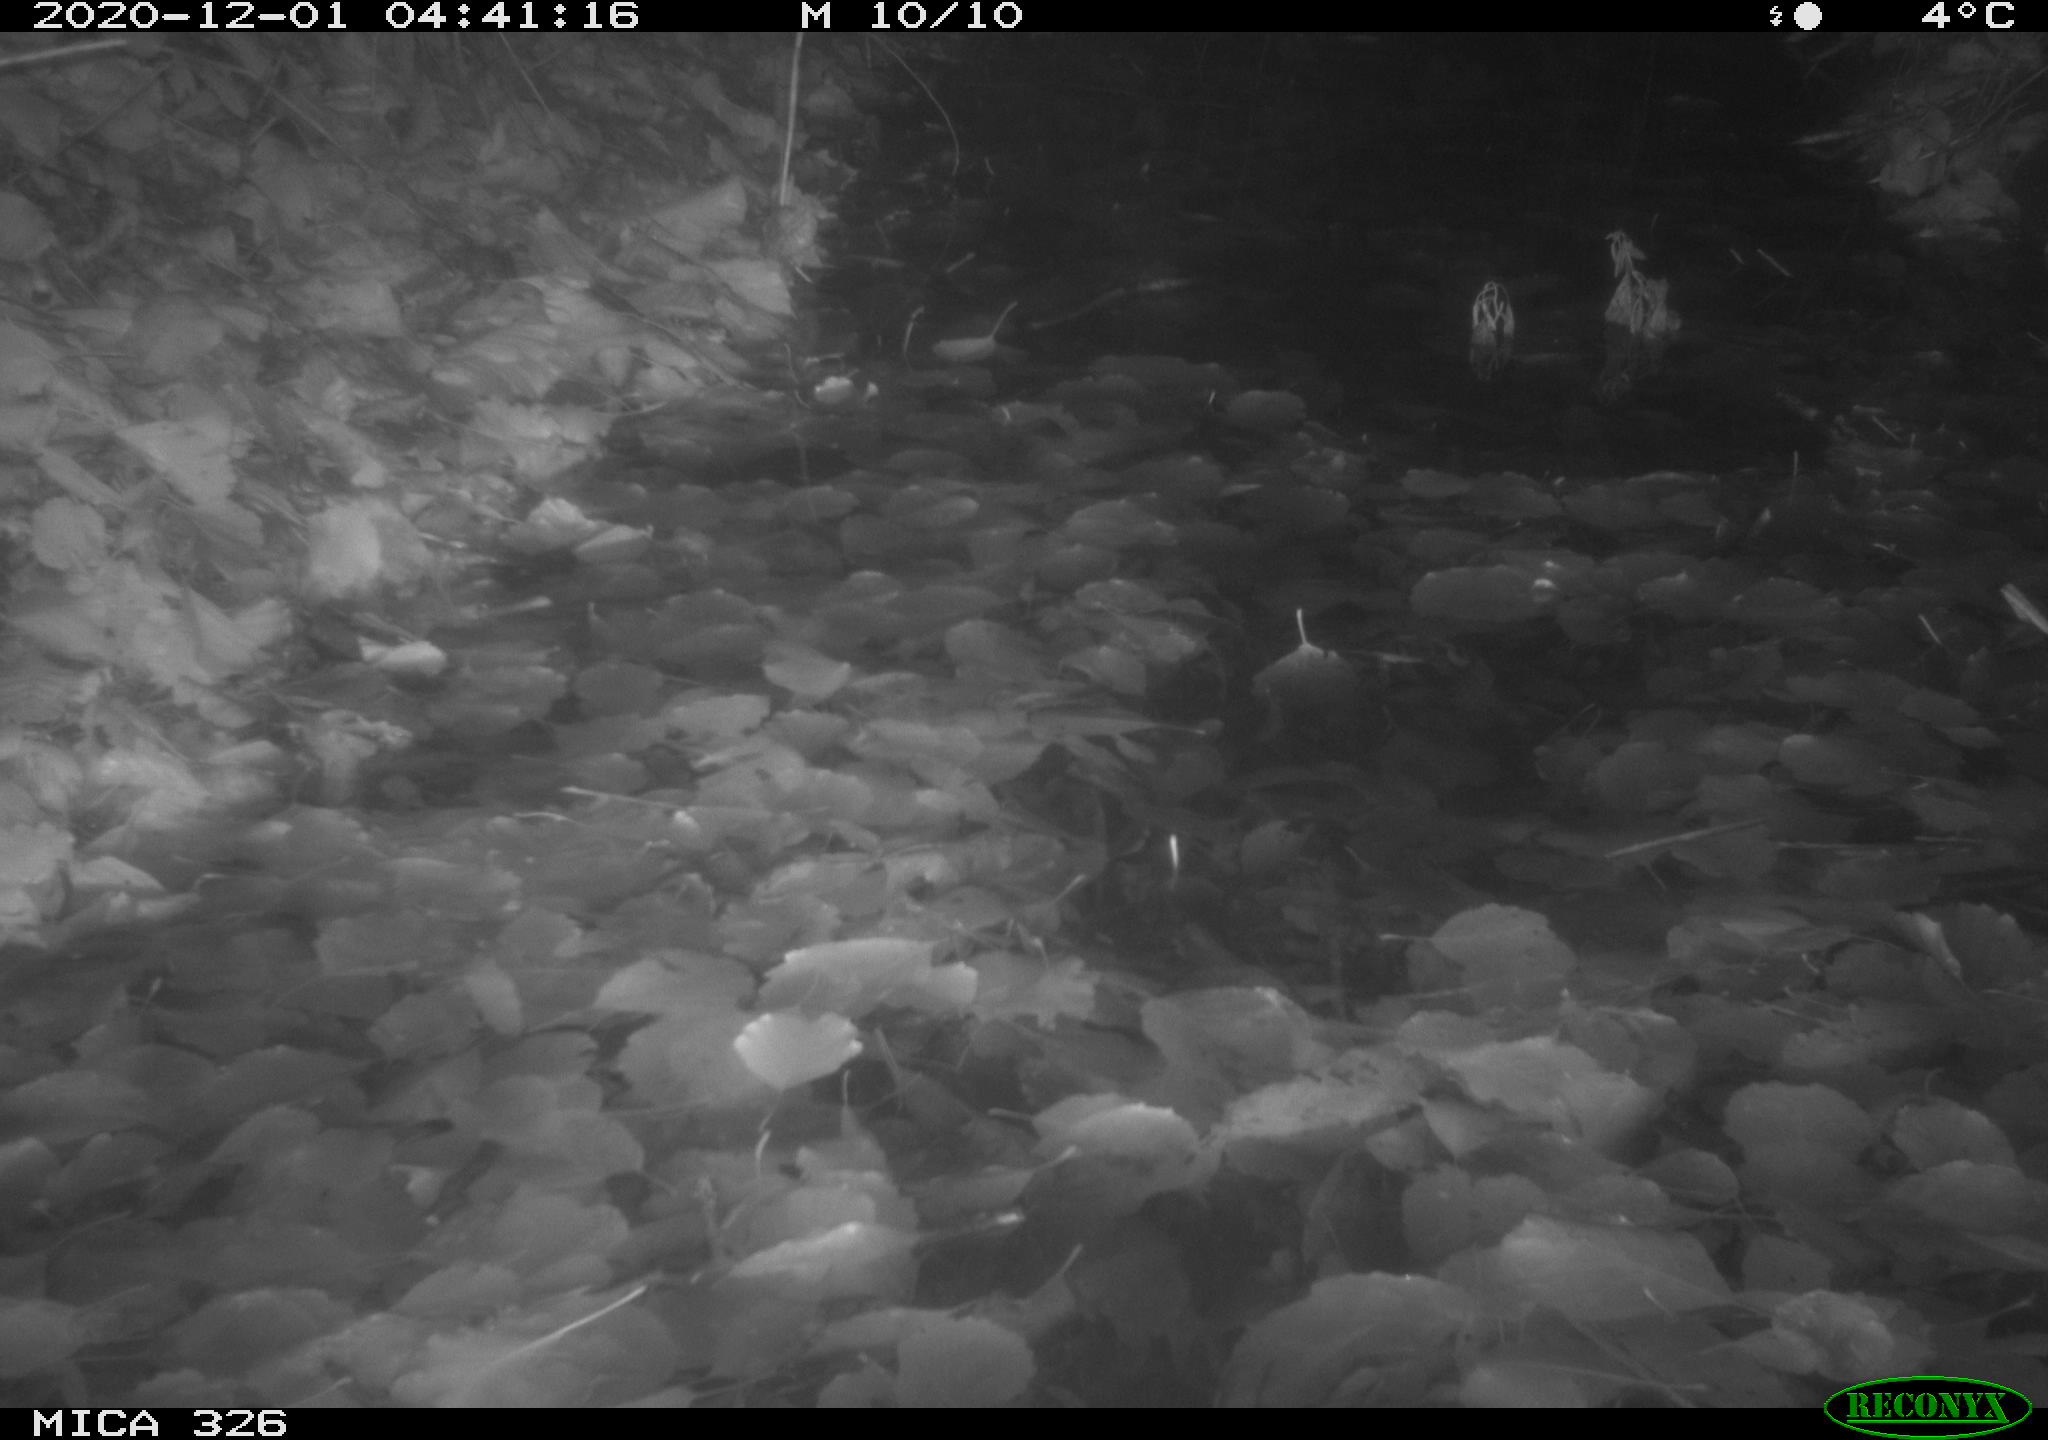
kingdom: Animalia
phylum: Chordata
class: Mammalia
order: Rodentia
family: Muridae
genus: Rattus
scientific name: Rattus norvegicus
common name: Brown rat
